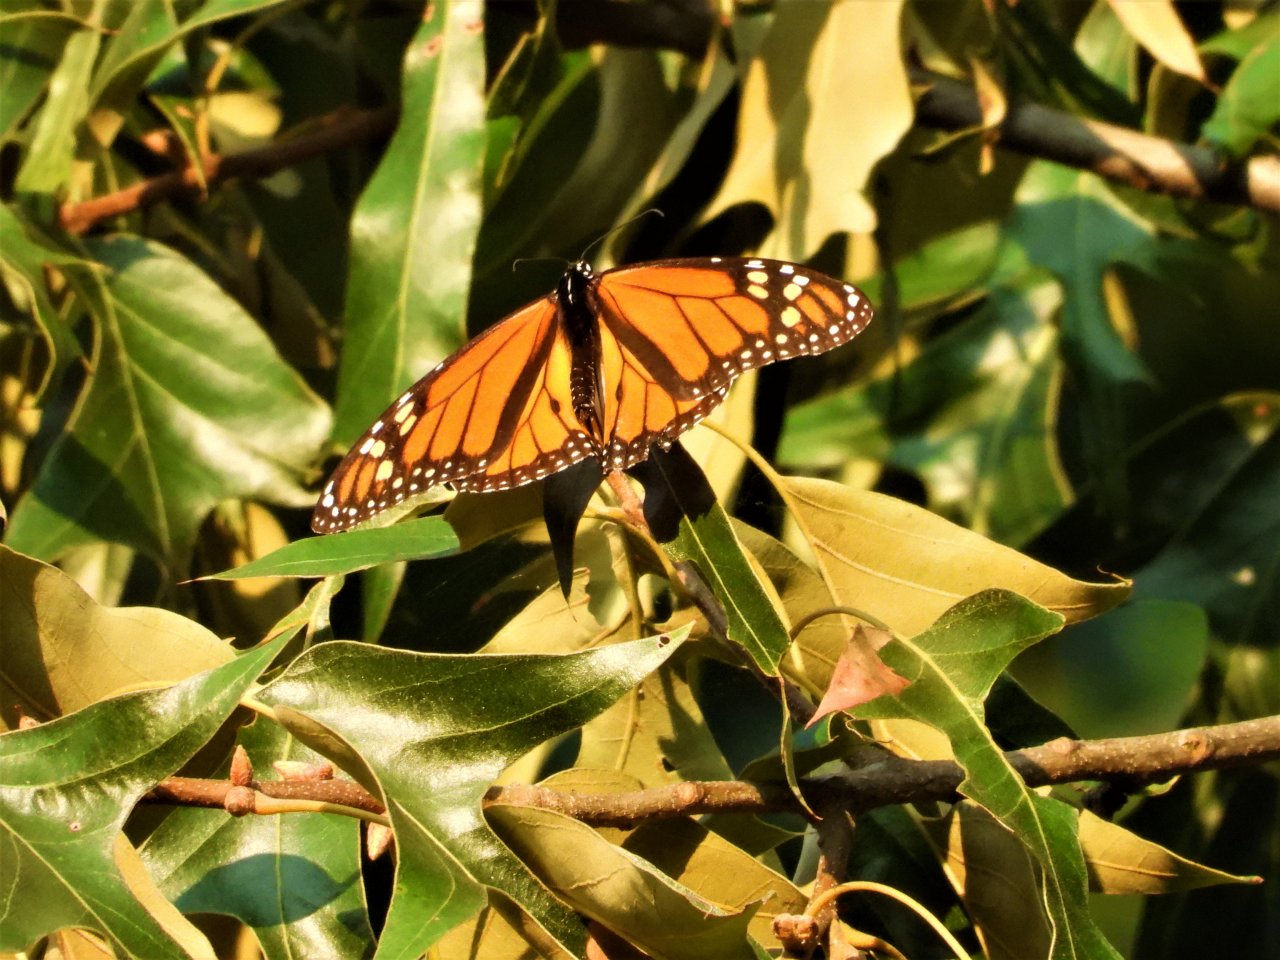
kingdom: Animalia
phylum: Arthropoda
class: Insecta
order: Lepidoptera
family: Nymphalidae
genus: Danaus
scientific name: Danaus plexippus
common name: Monarch
